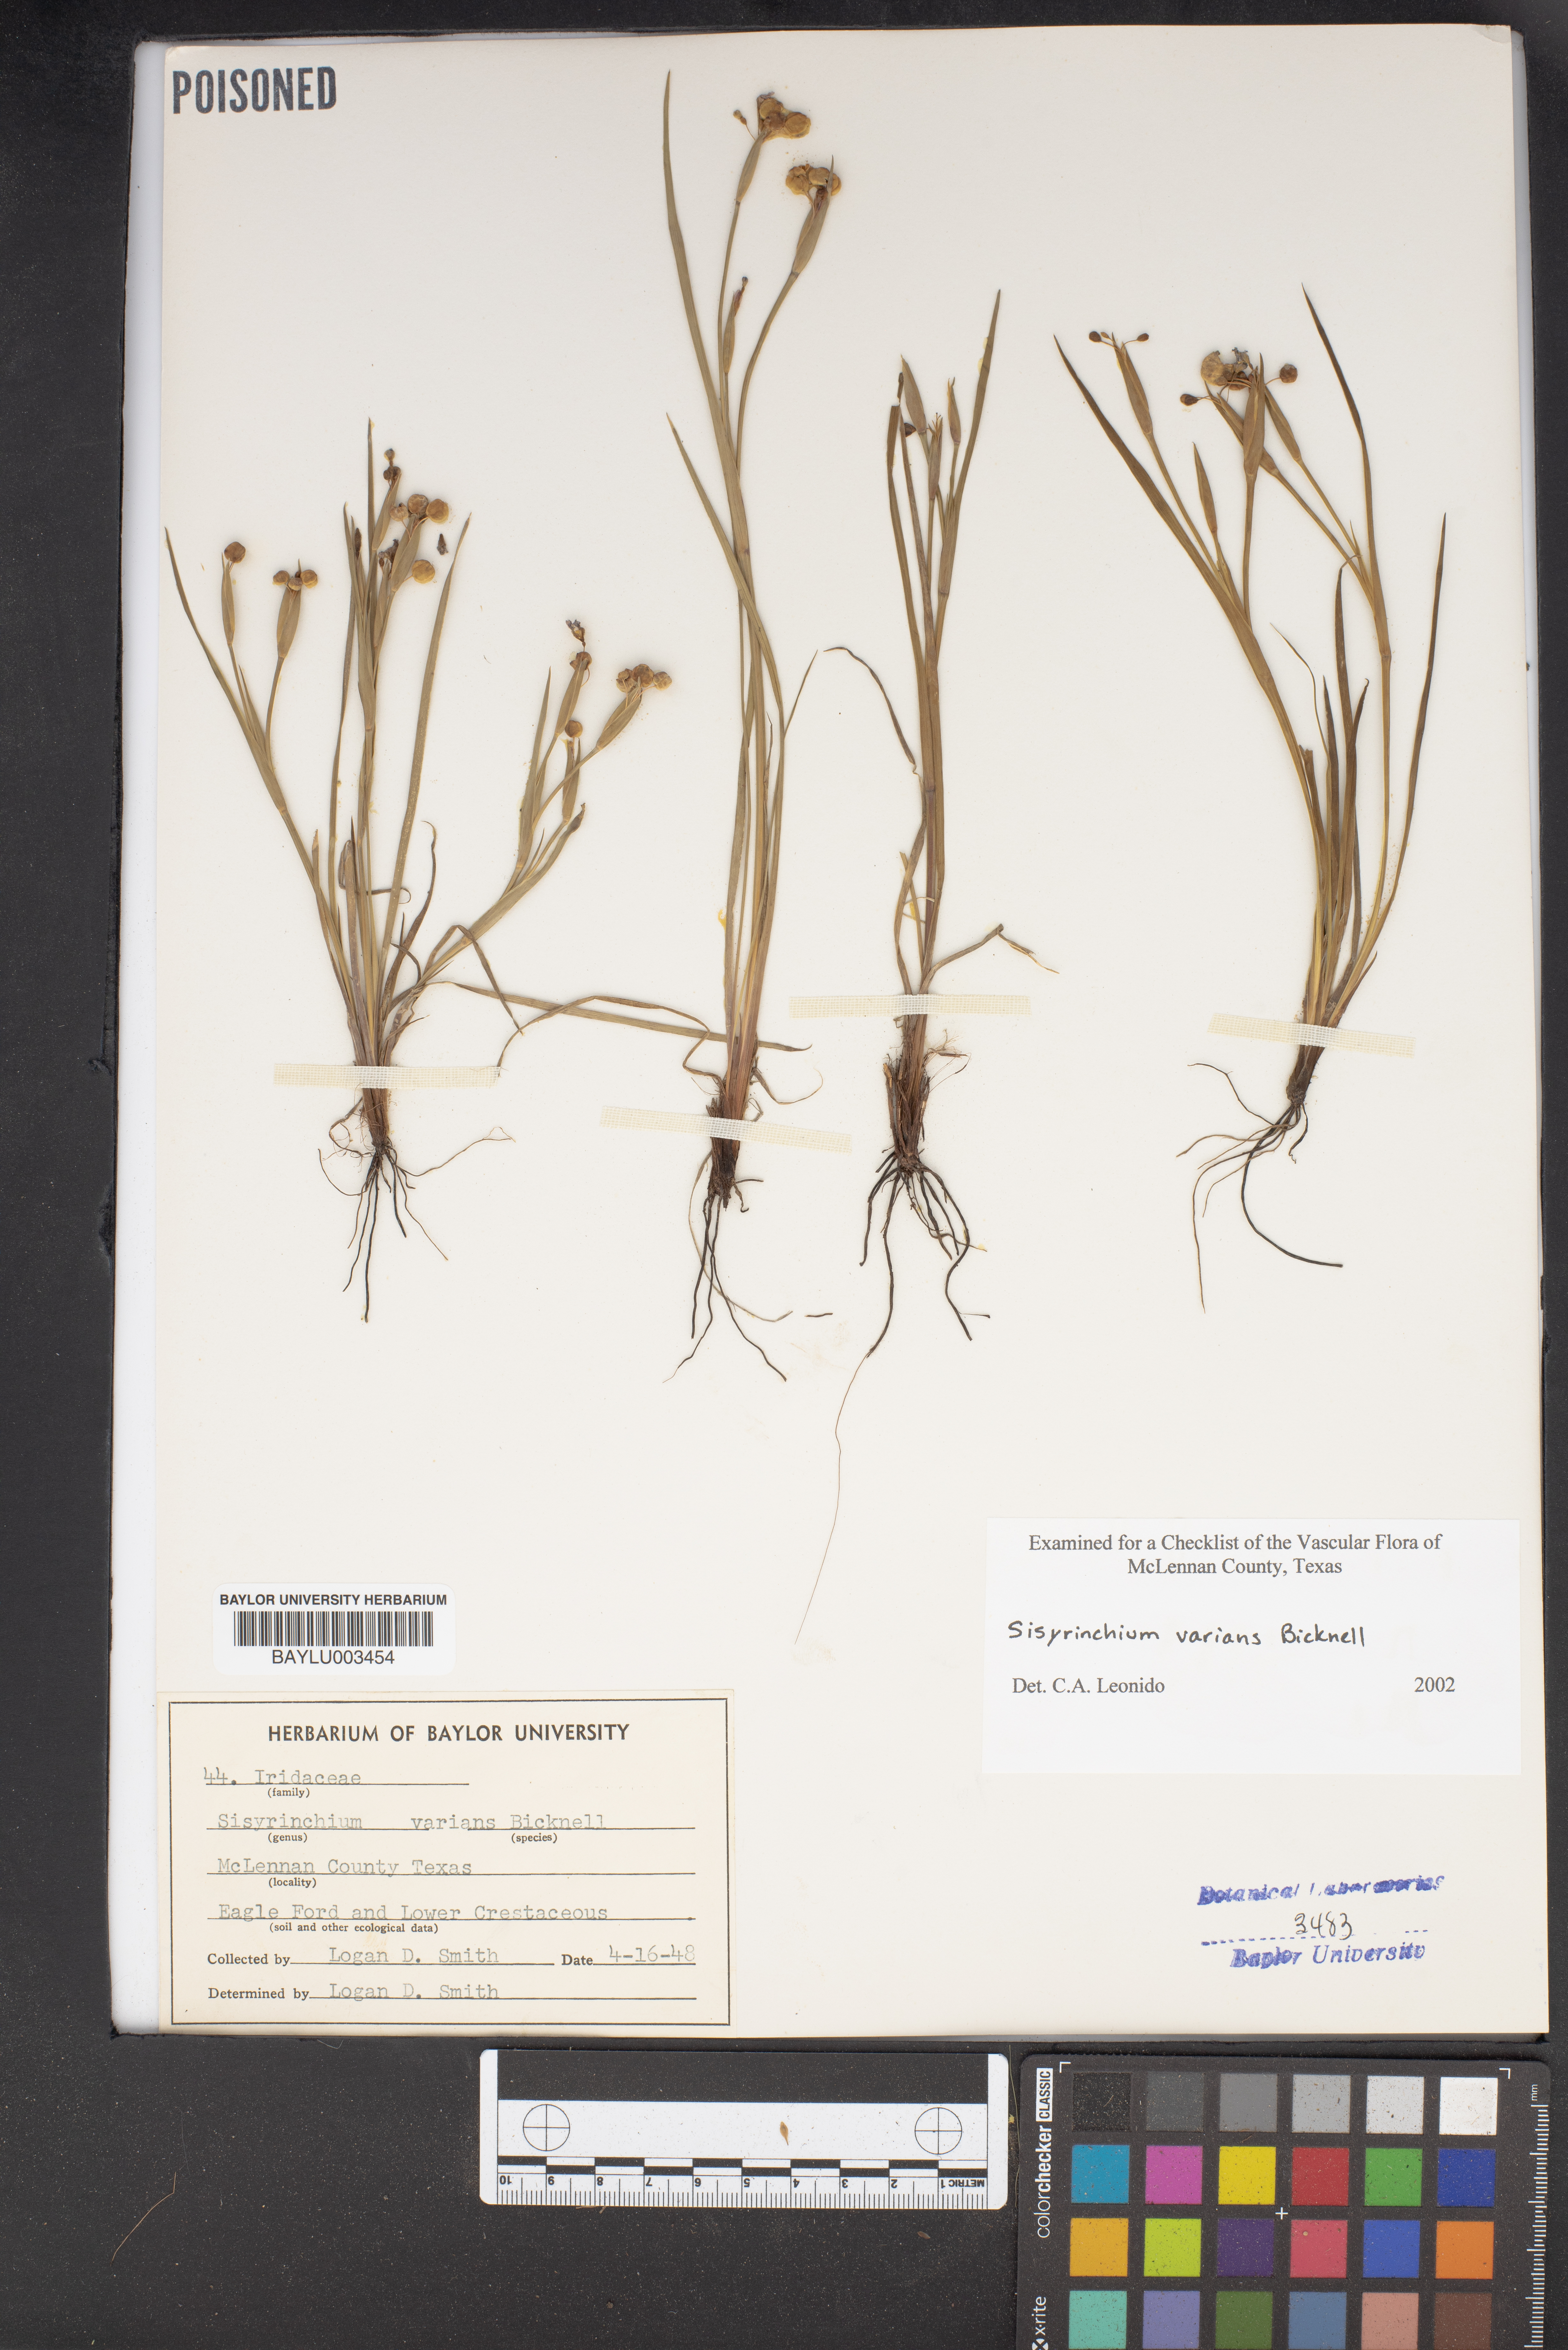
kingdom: Plantae
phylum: Tracheophyta
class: Liliopsida
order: Asparagales
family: Iridaceae
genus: Sisyrinchium
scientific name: Sisyrinchium pruinosum
